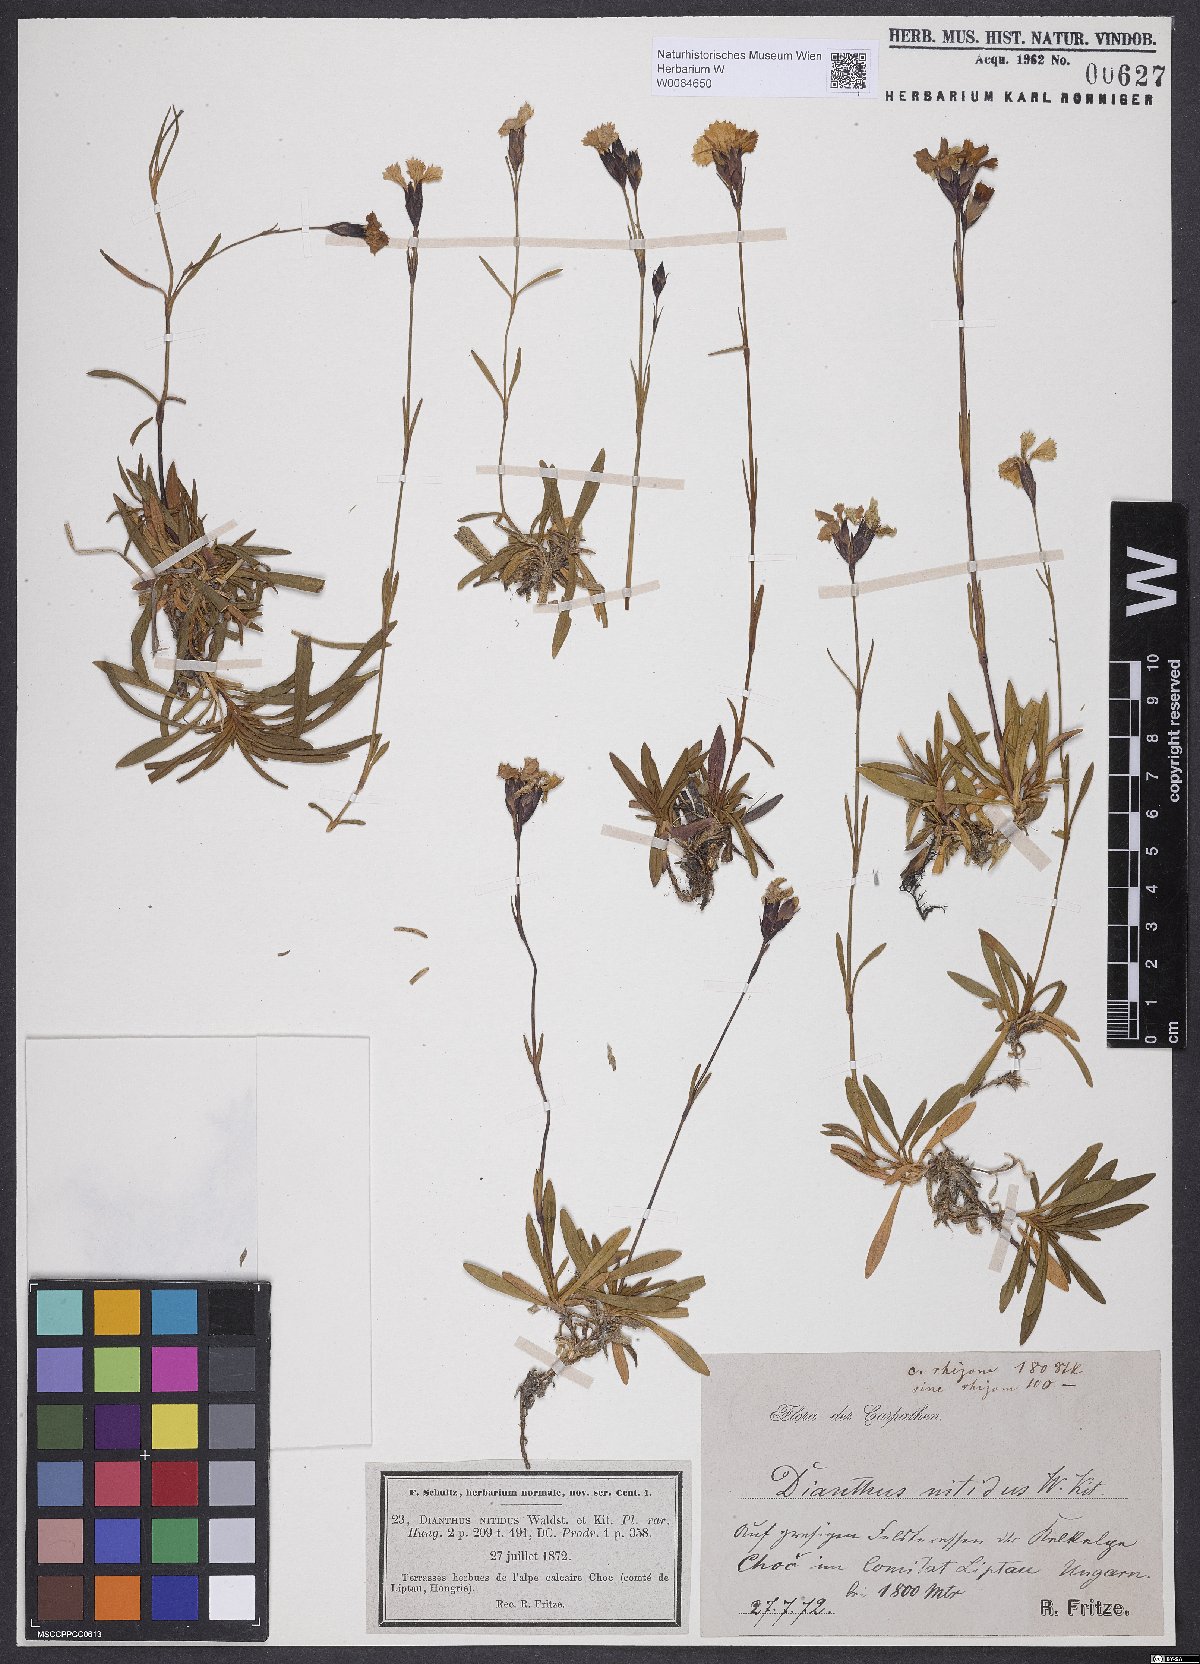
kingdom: Plantae
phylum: Tracheophyta
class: Magnoliopsida
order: Caryophyllales
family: Caryophyllaceae
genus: Dianthus
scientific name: Dianthus nitidus
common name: Carpathian glossy pink
